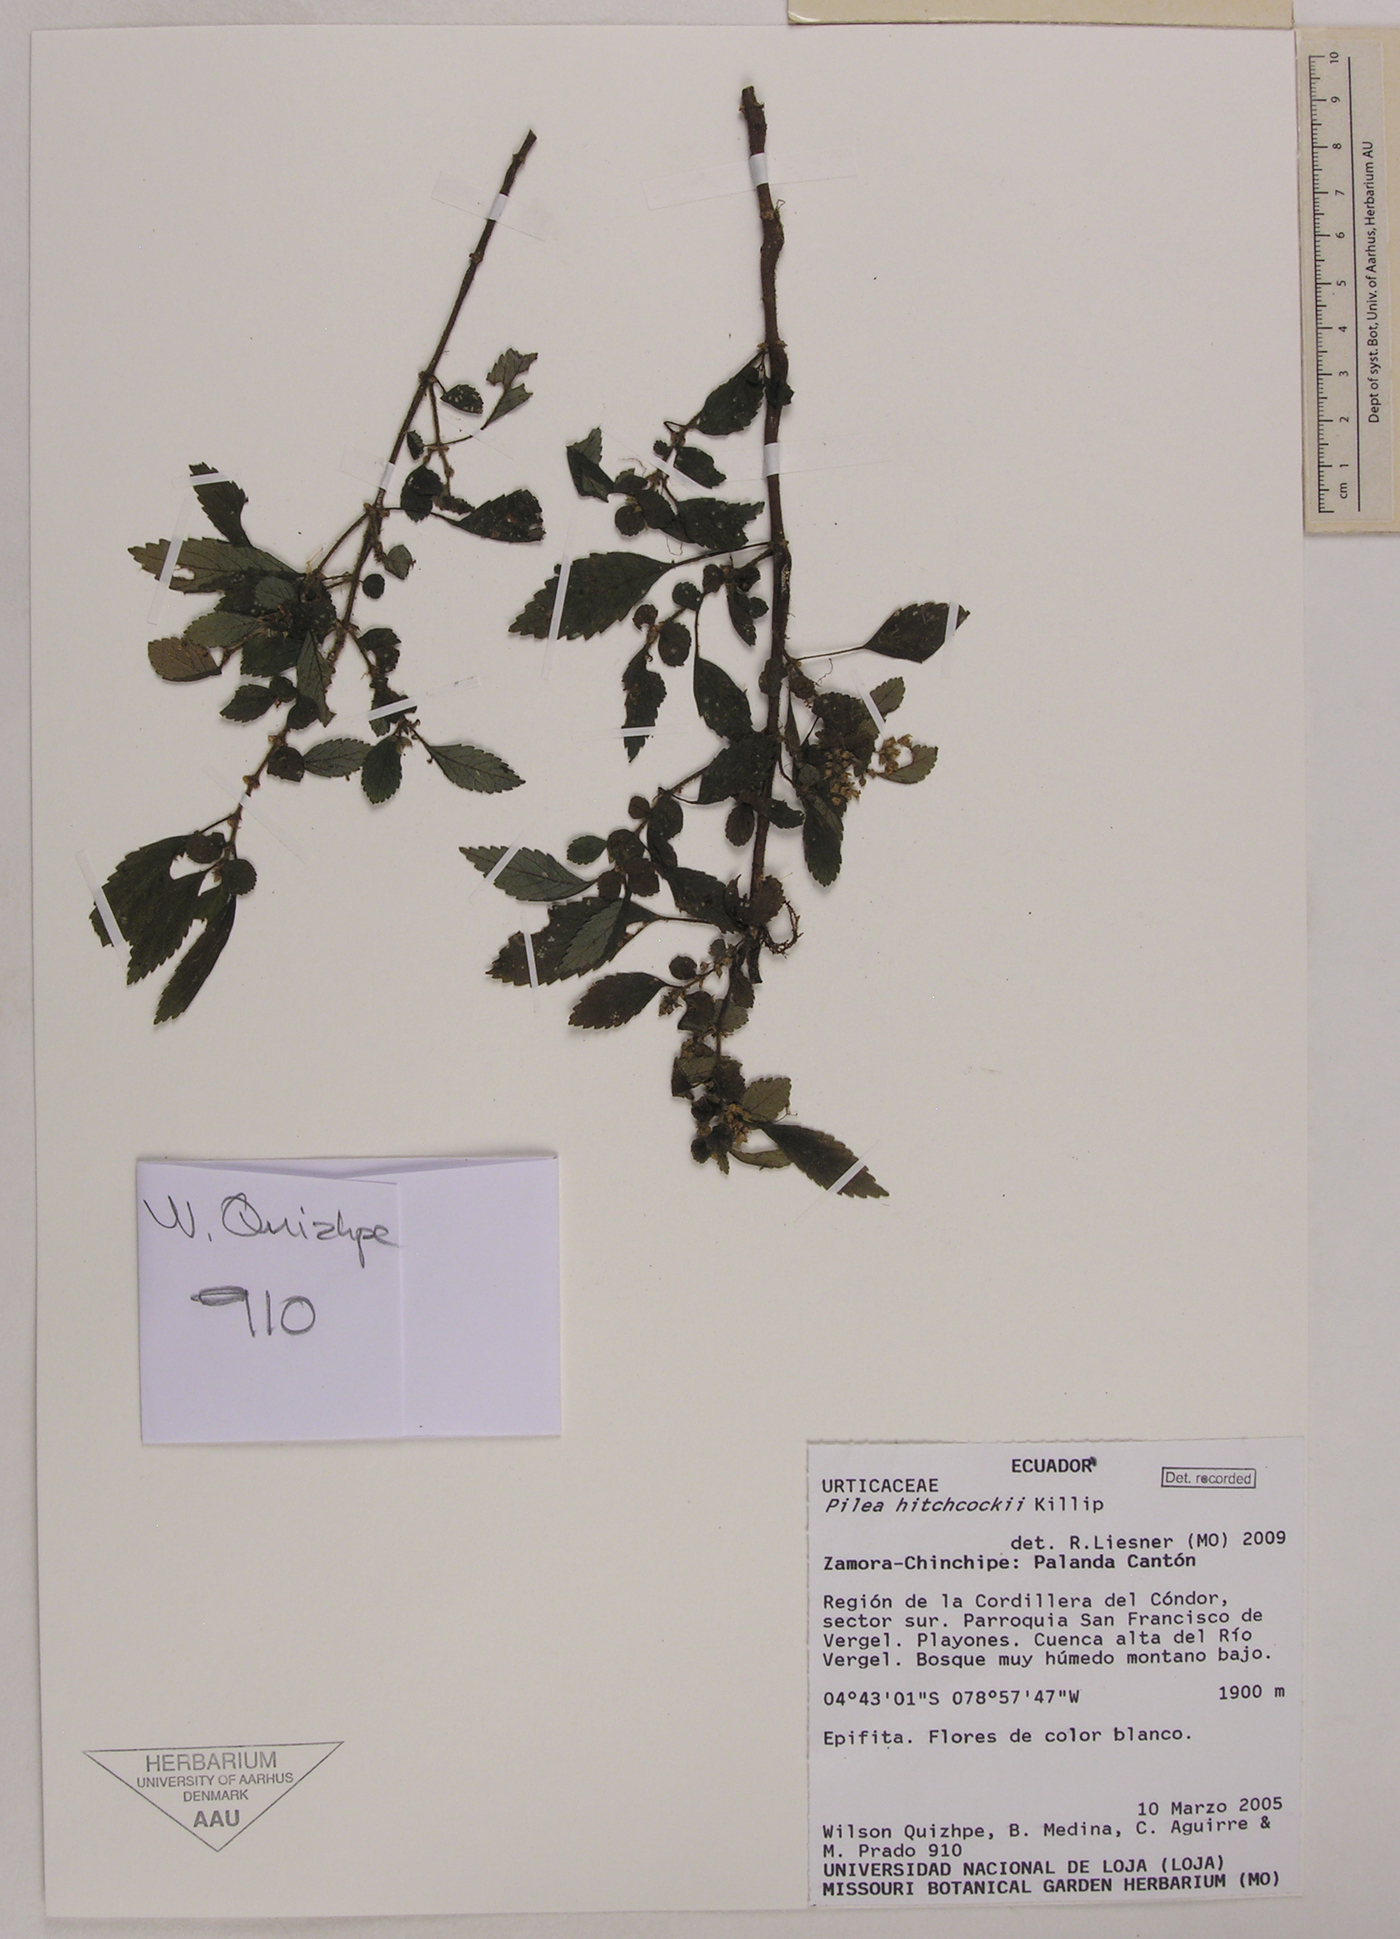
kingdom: Plantae
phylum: Tracheophyta
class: Magnoliopsida
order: Rosales
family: Urticaceae
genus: Pilea
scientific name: Pilea hitchcockii
